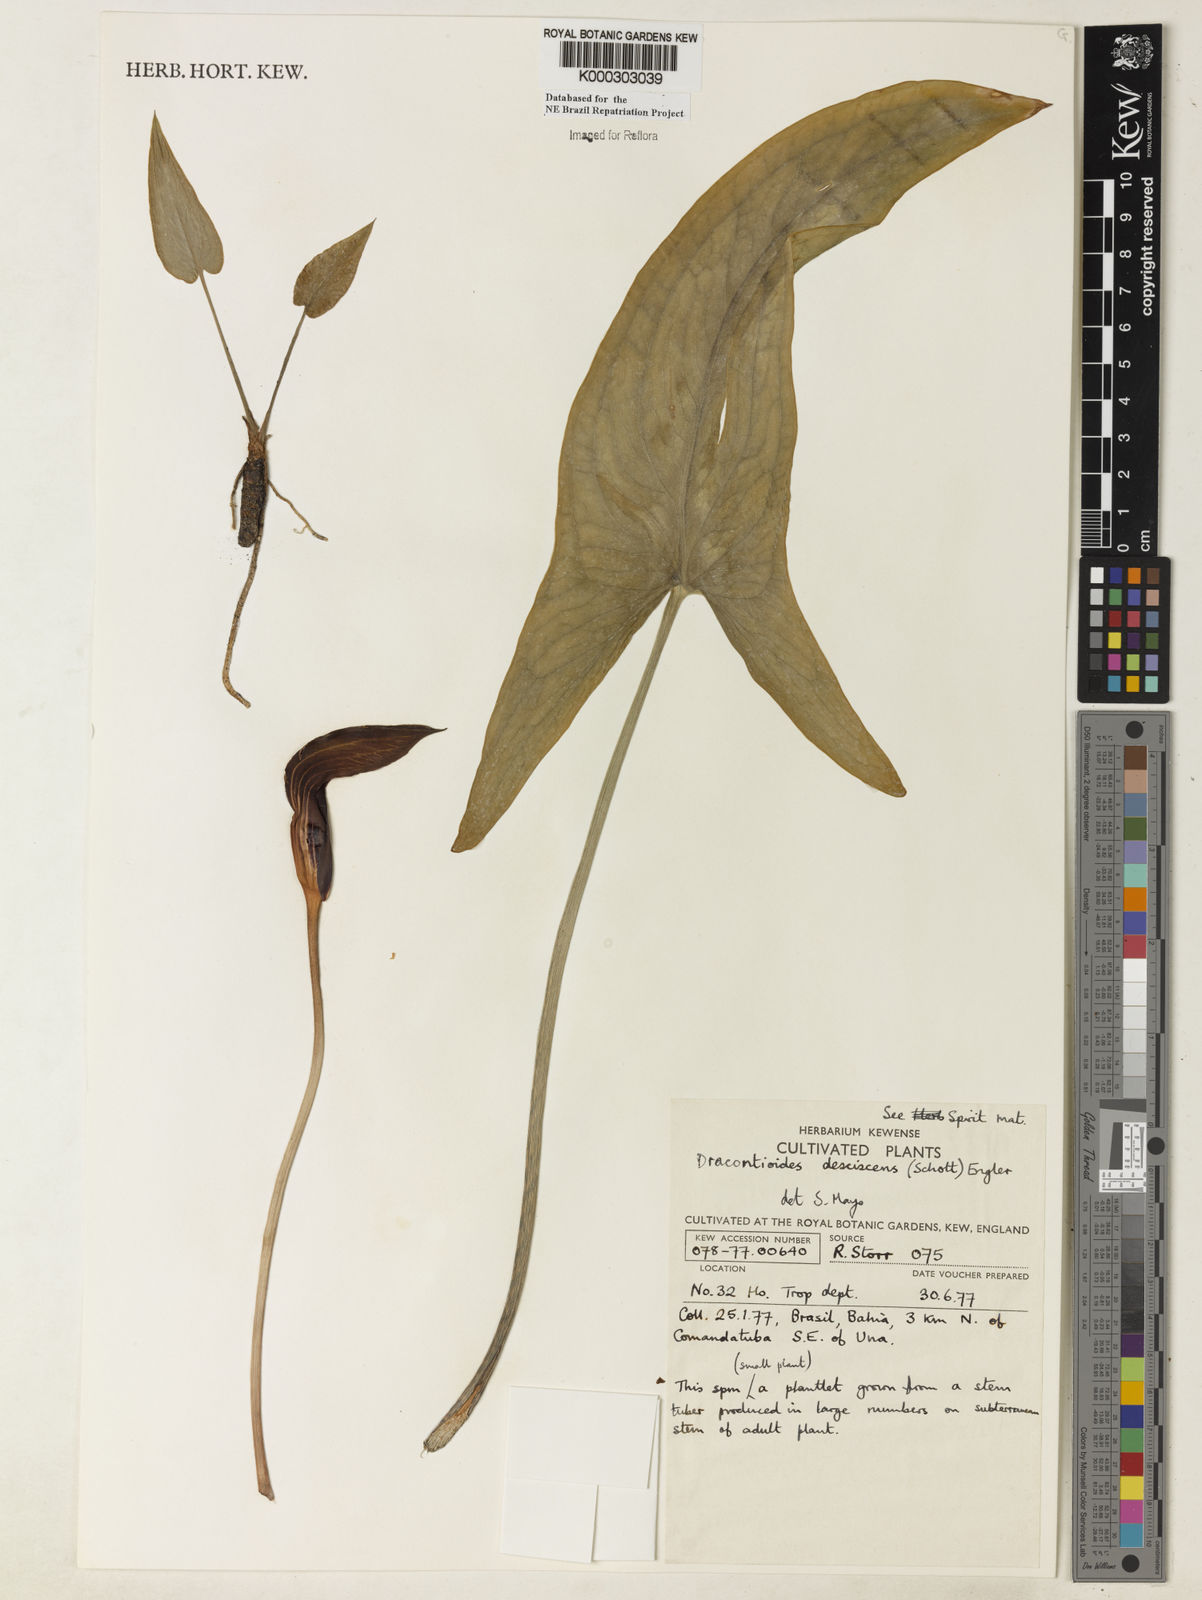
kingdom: Plantae
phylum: Tracheophyta
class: Liliopsida
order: Alismatales
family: Araceae
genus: Dracontioides
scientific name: Dracontioides desciscens
